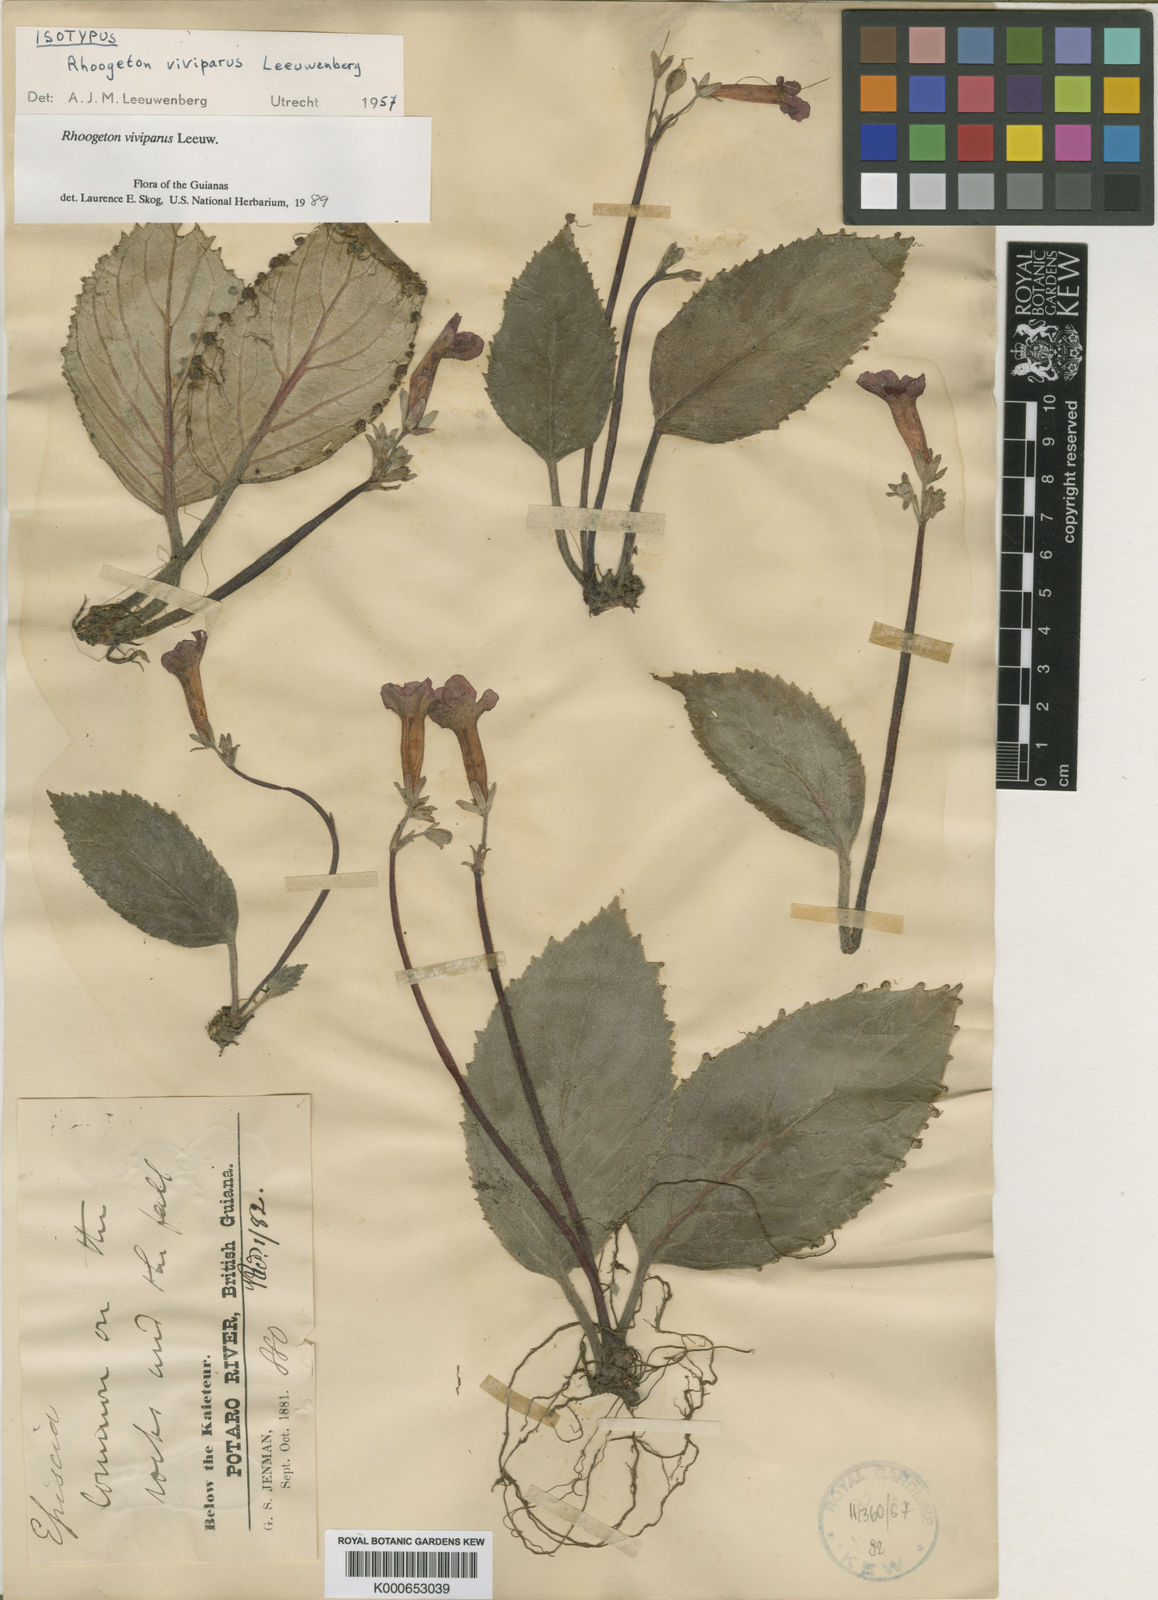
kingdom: Plantae
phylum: Tracheophyta
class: Magnoliopsida
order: Lamiales
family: Gesneriaceae
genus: Rhoogeton
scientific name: Rhoogeton
